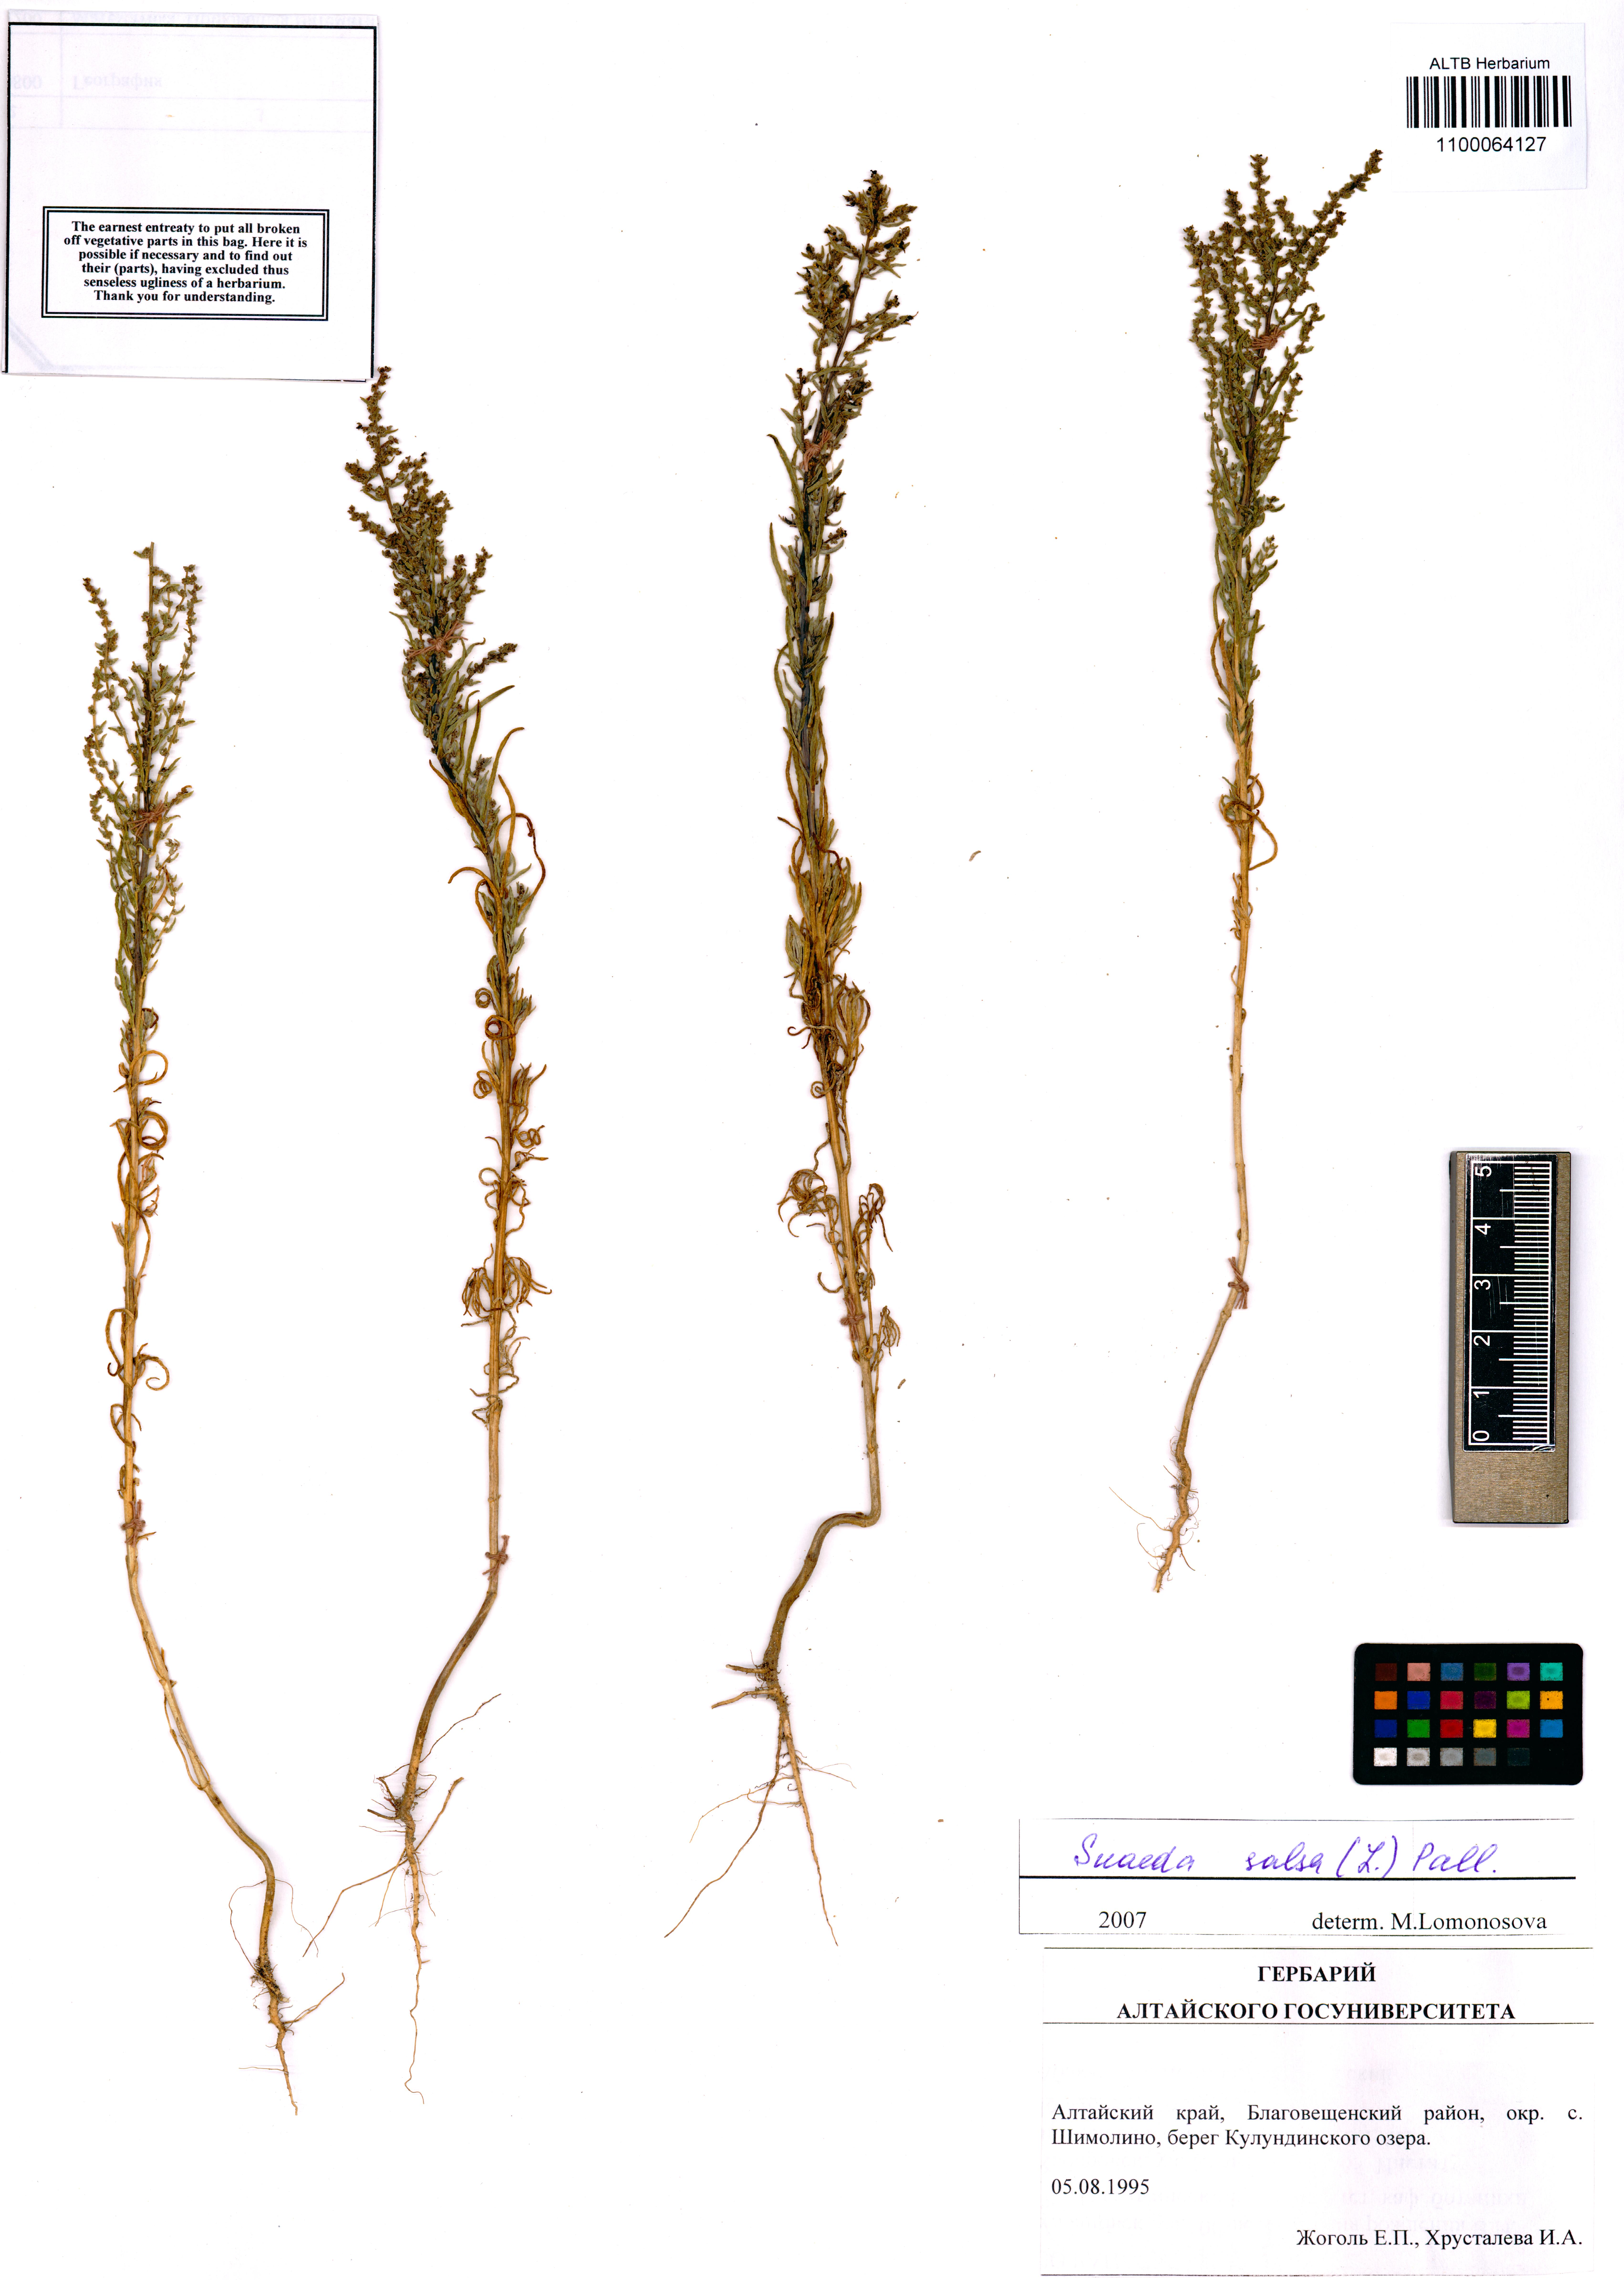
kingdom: Plantae
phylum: Tracheophyta
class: Magnoliopsida
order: Caryophyllales
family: Amaranthaceae
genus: Suaeda
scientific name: Suaeda salsa
